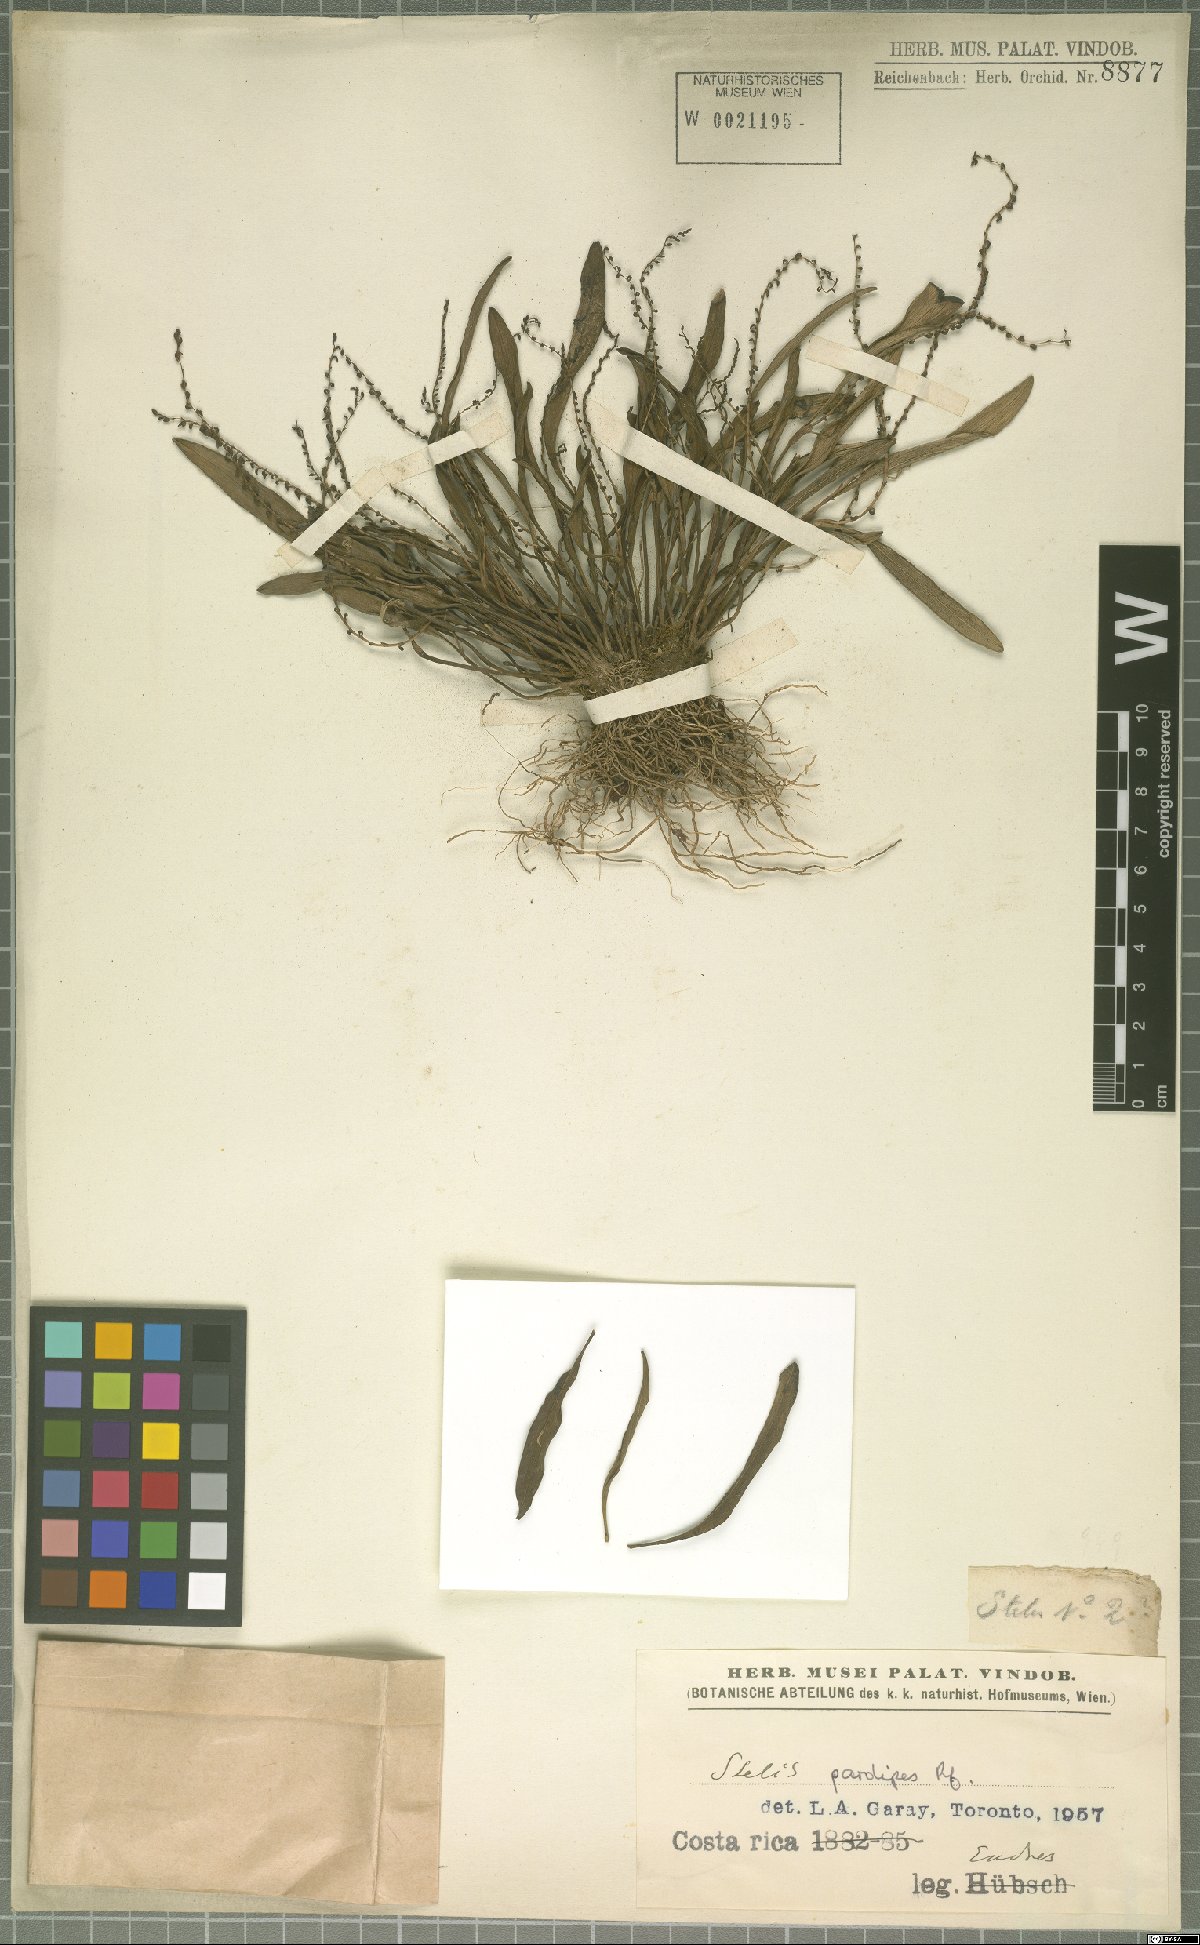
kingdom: Plantae
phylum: Tracheophyta
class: Liliopsida
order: Asparagales
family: Orchidaceae
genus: Stelis
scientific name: Stelis pardipes
